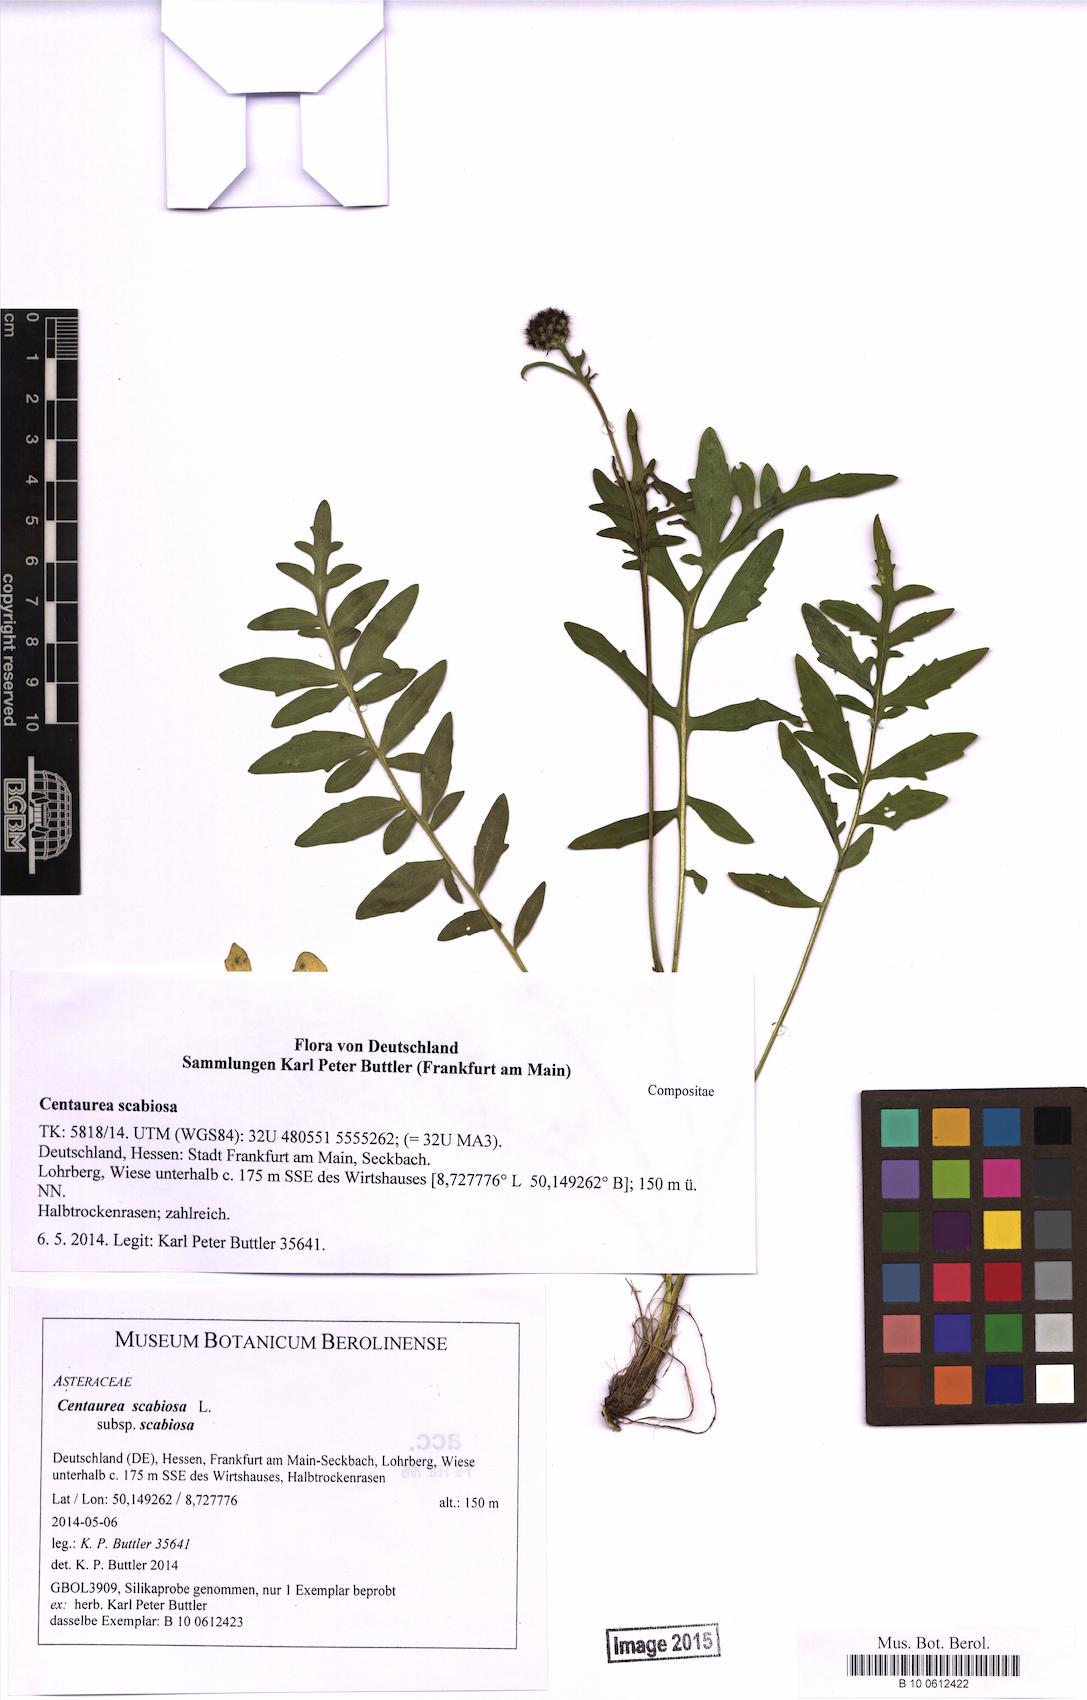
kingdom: Plantae
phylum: Tracheophyta
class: Magnoliopsida
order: Asterales
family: Asteraceae
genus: Centaurea
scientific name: Centaurea scabiosa
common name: Greater knapweed
